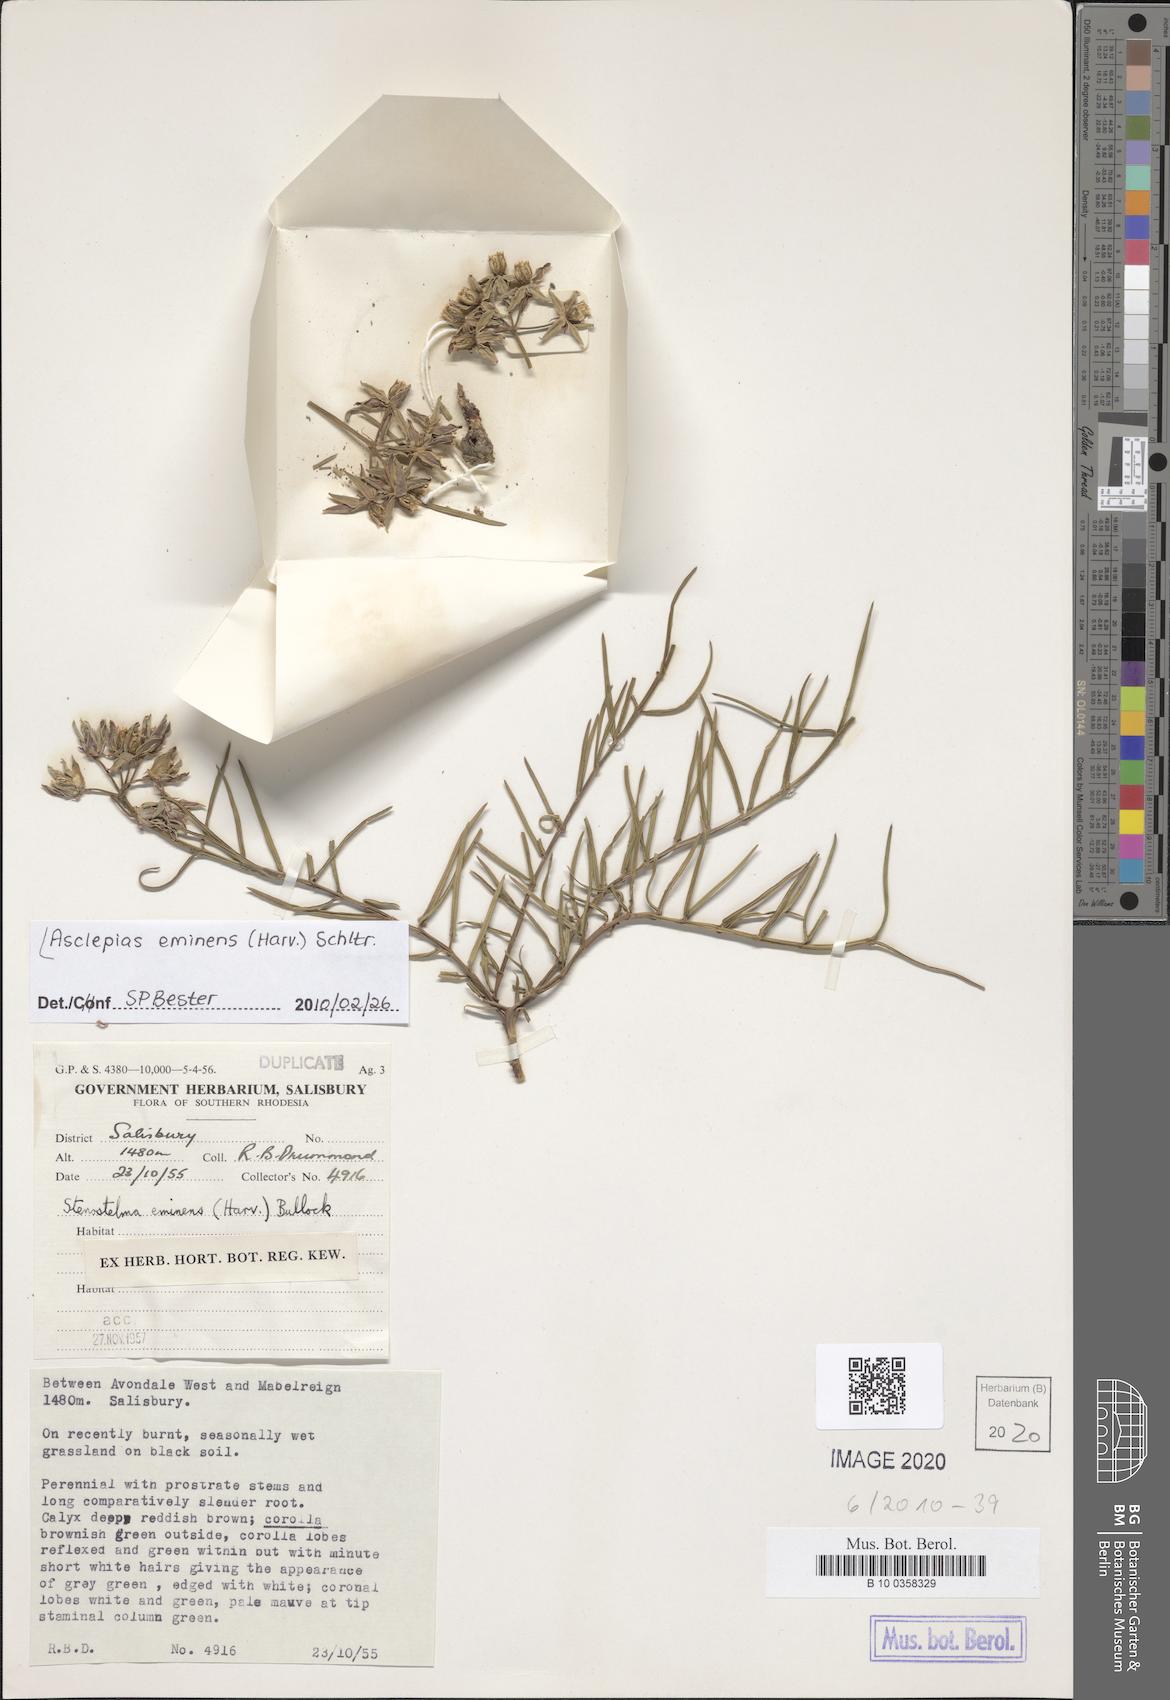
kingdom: Plantae
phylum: Tracheophyta
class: Magnoliopsida
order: Gentianales
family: Apocynaceae
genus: Asclepias
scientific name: Asclepias eminens
